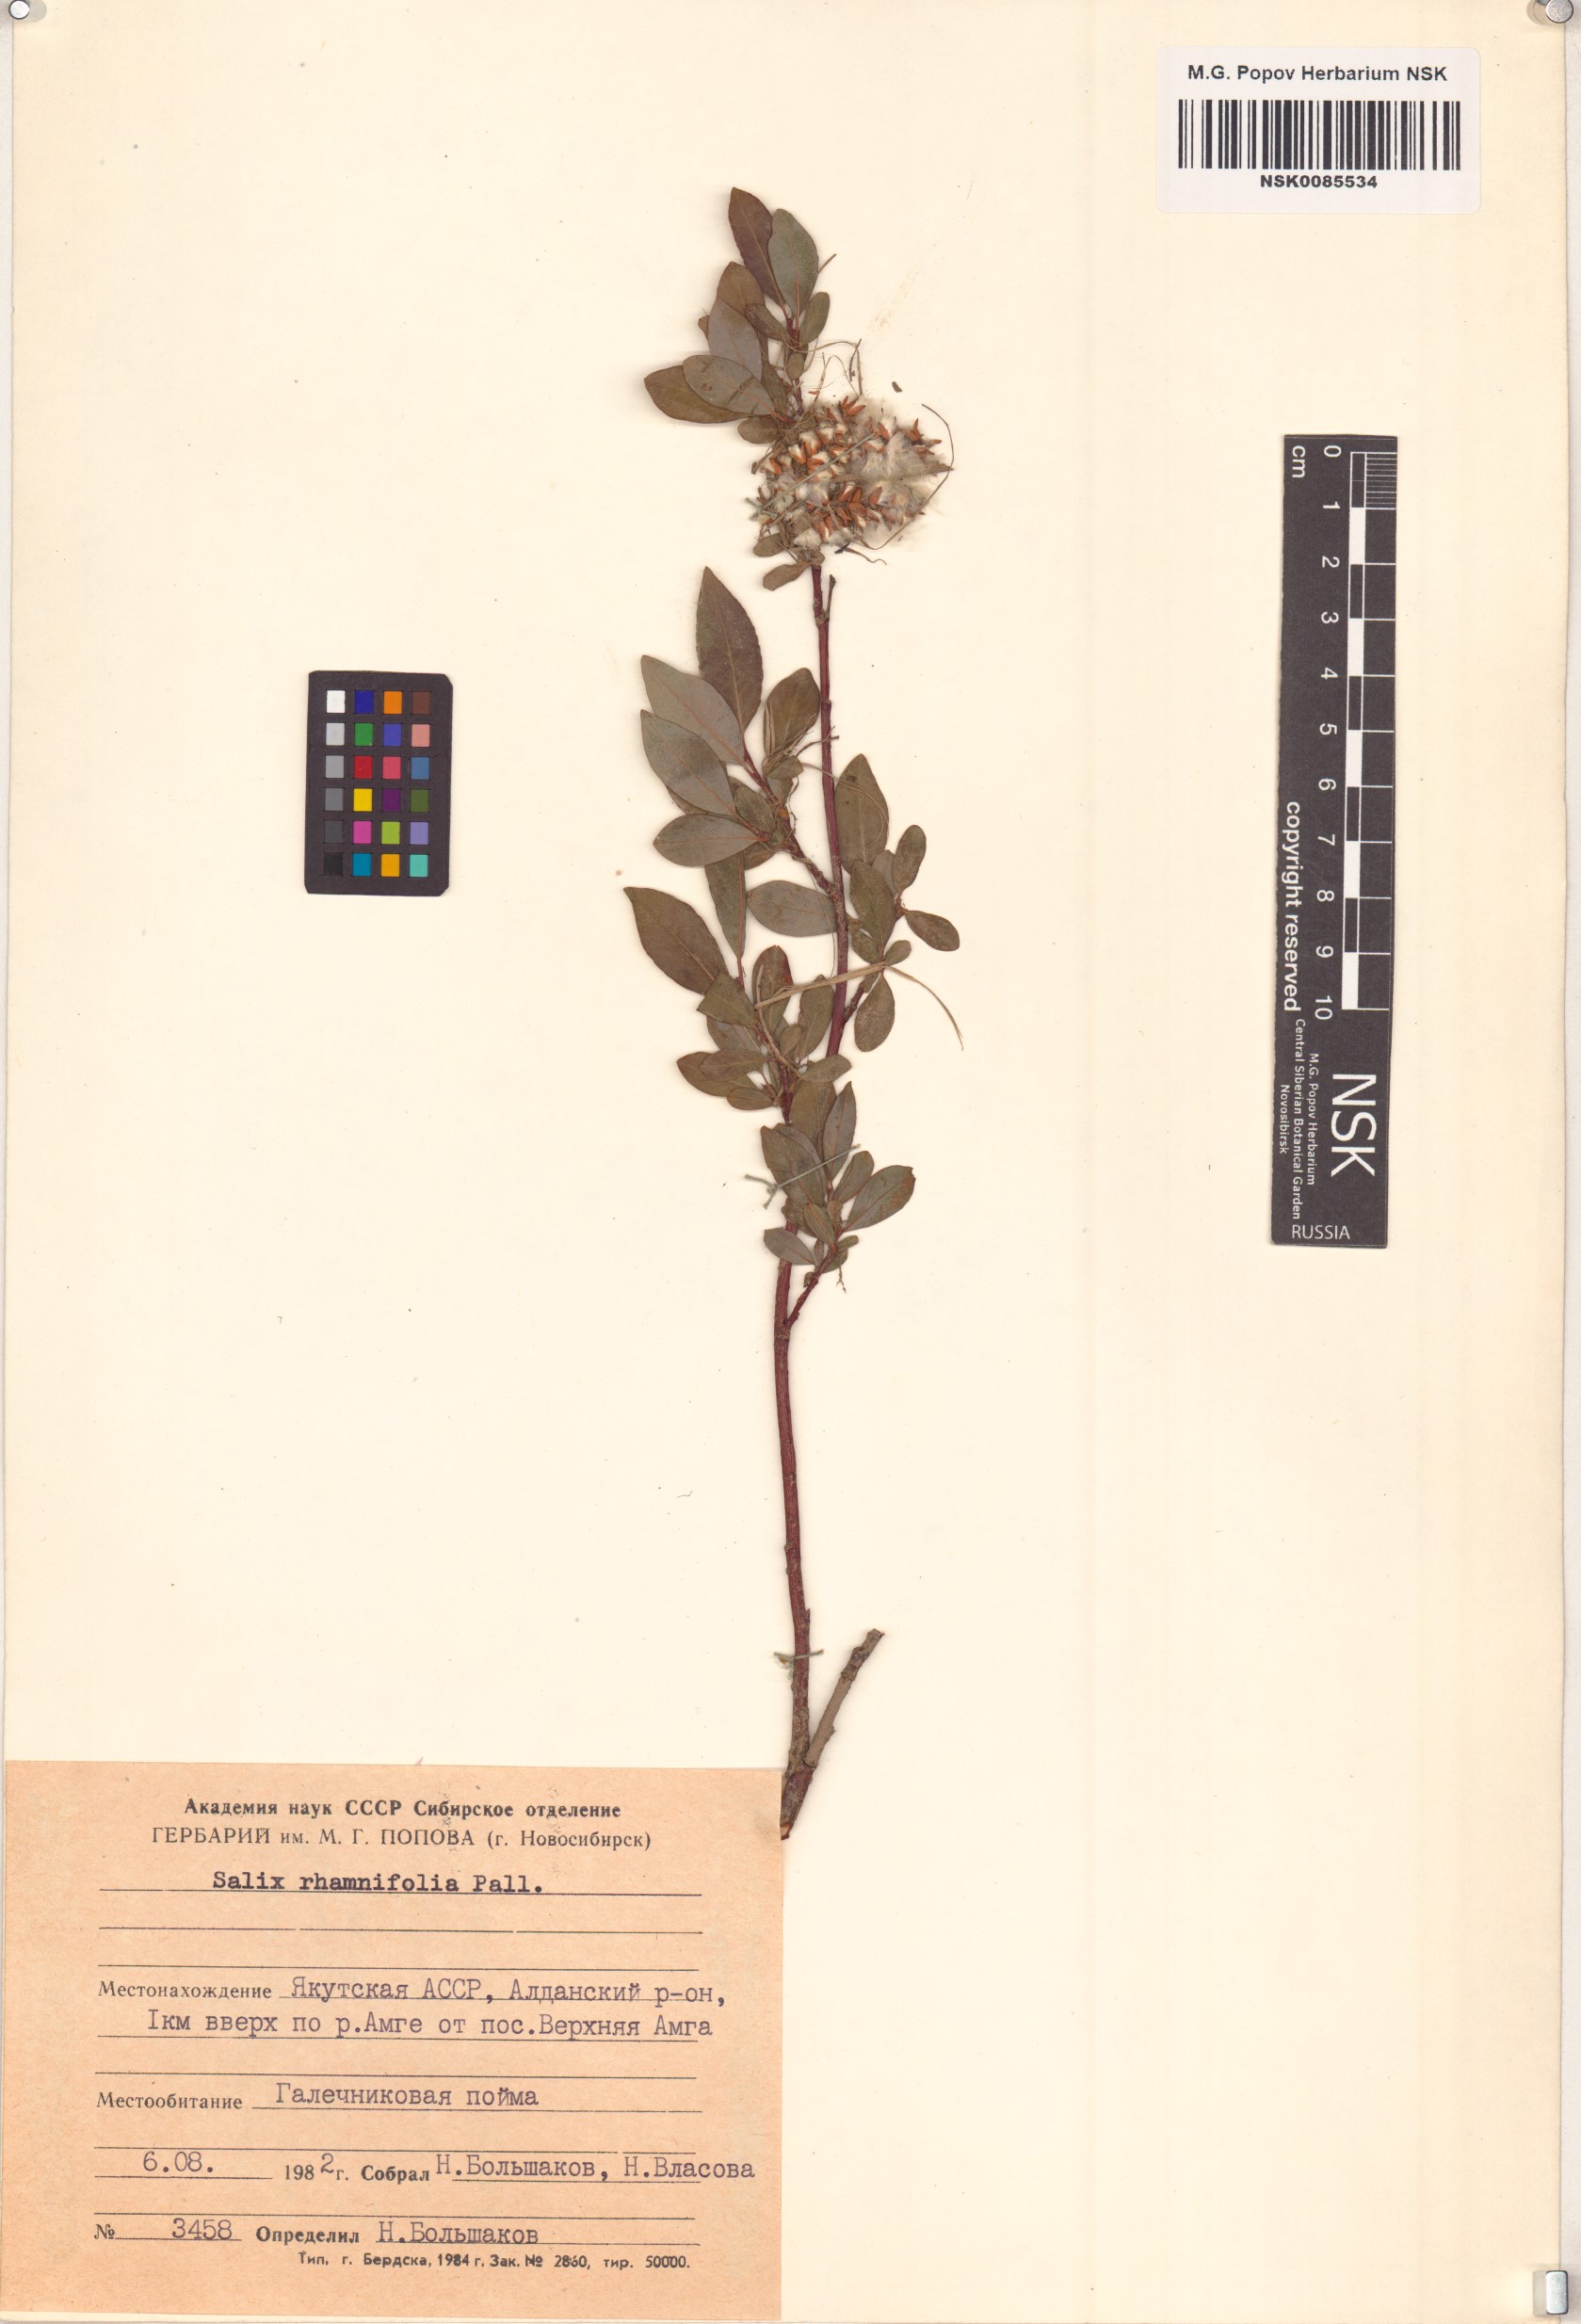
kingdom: Plantae
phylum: Tracheophyta
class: Magnoliopsida
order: Malpighiales
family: Salicaceae
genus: Salix
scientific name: Salix rhamnifolia
